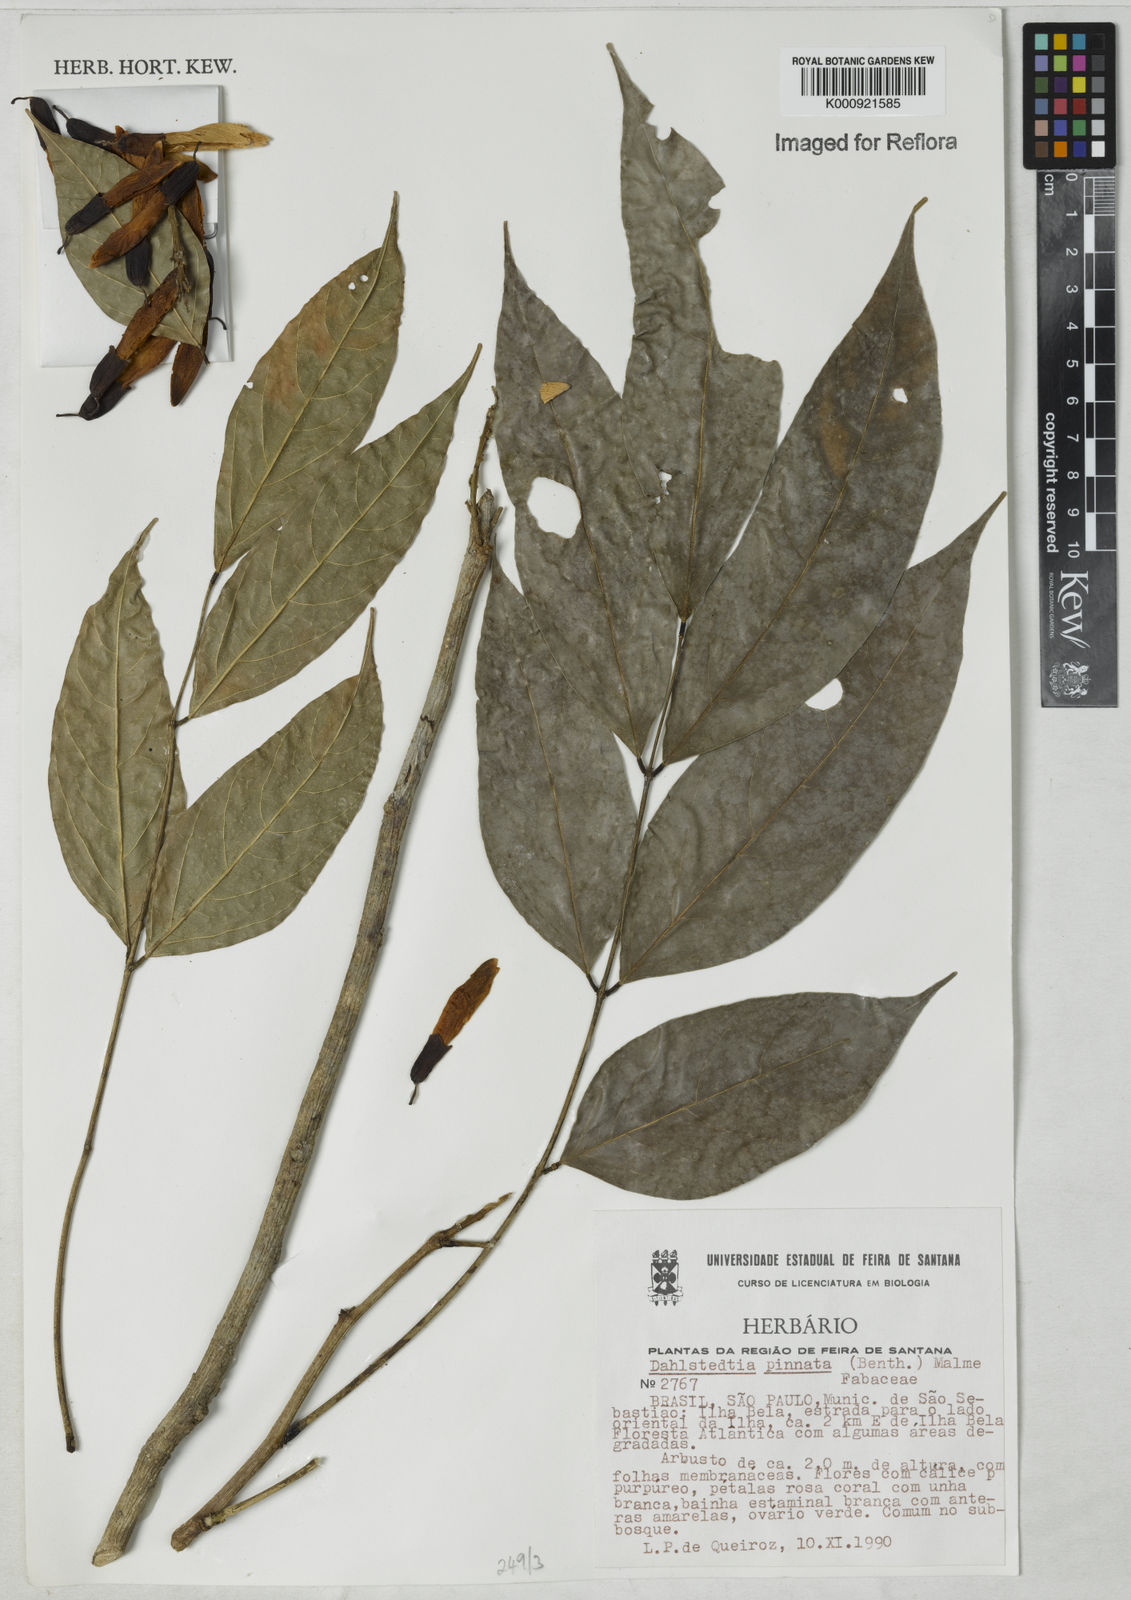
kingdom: Plantae
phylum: Tracheophyta
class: Magnoliopsida
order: Fabales
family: Fabaceae
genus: Dahlstedtia
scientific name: Dahlstedtia pinnata
